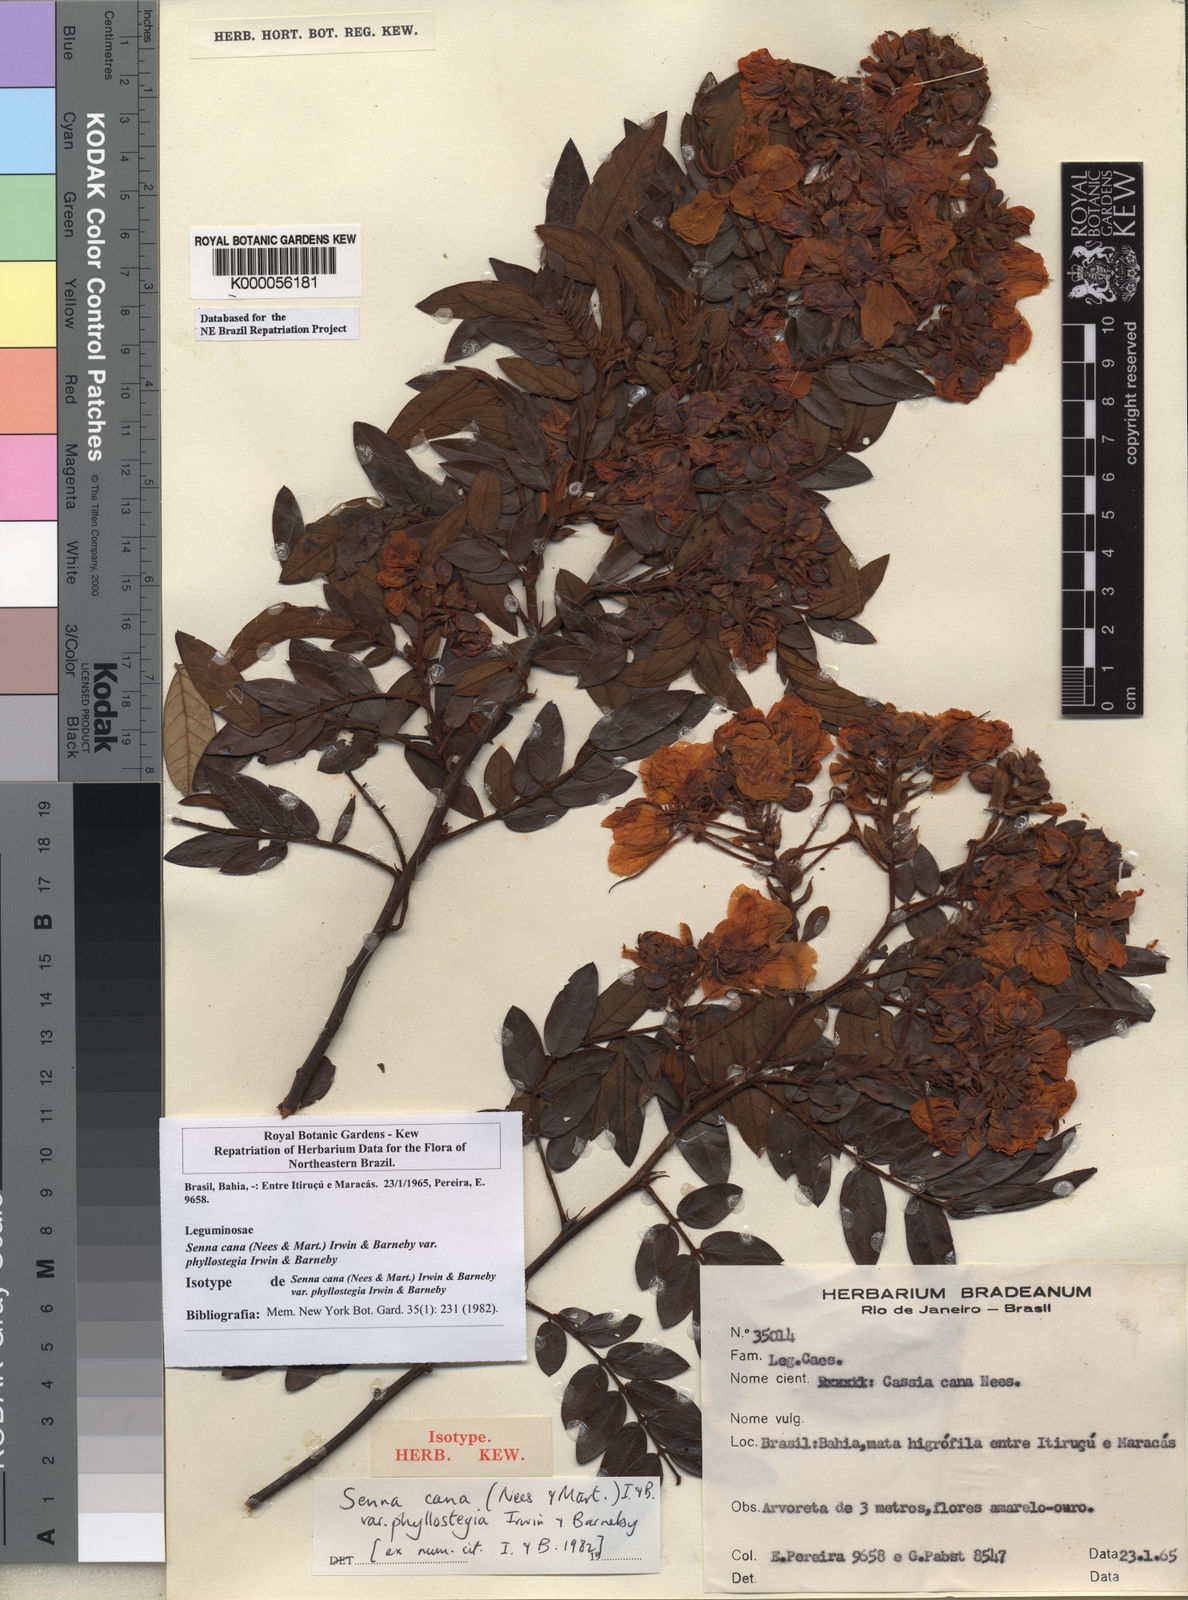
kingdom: Plantae
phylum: Tracheophyta
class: Magnoliopsida
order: Fabales
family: Fabaceae
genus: Senna
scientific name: Senna cana
